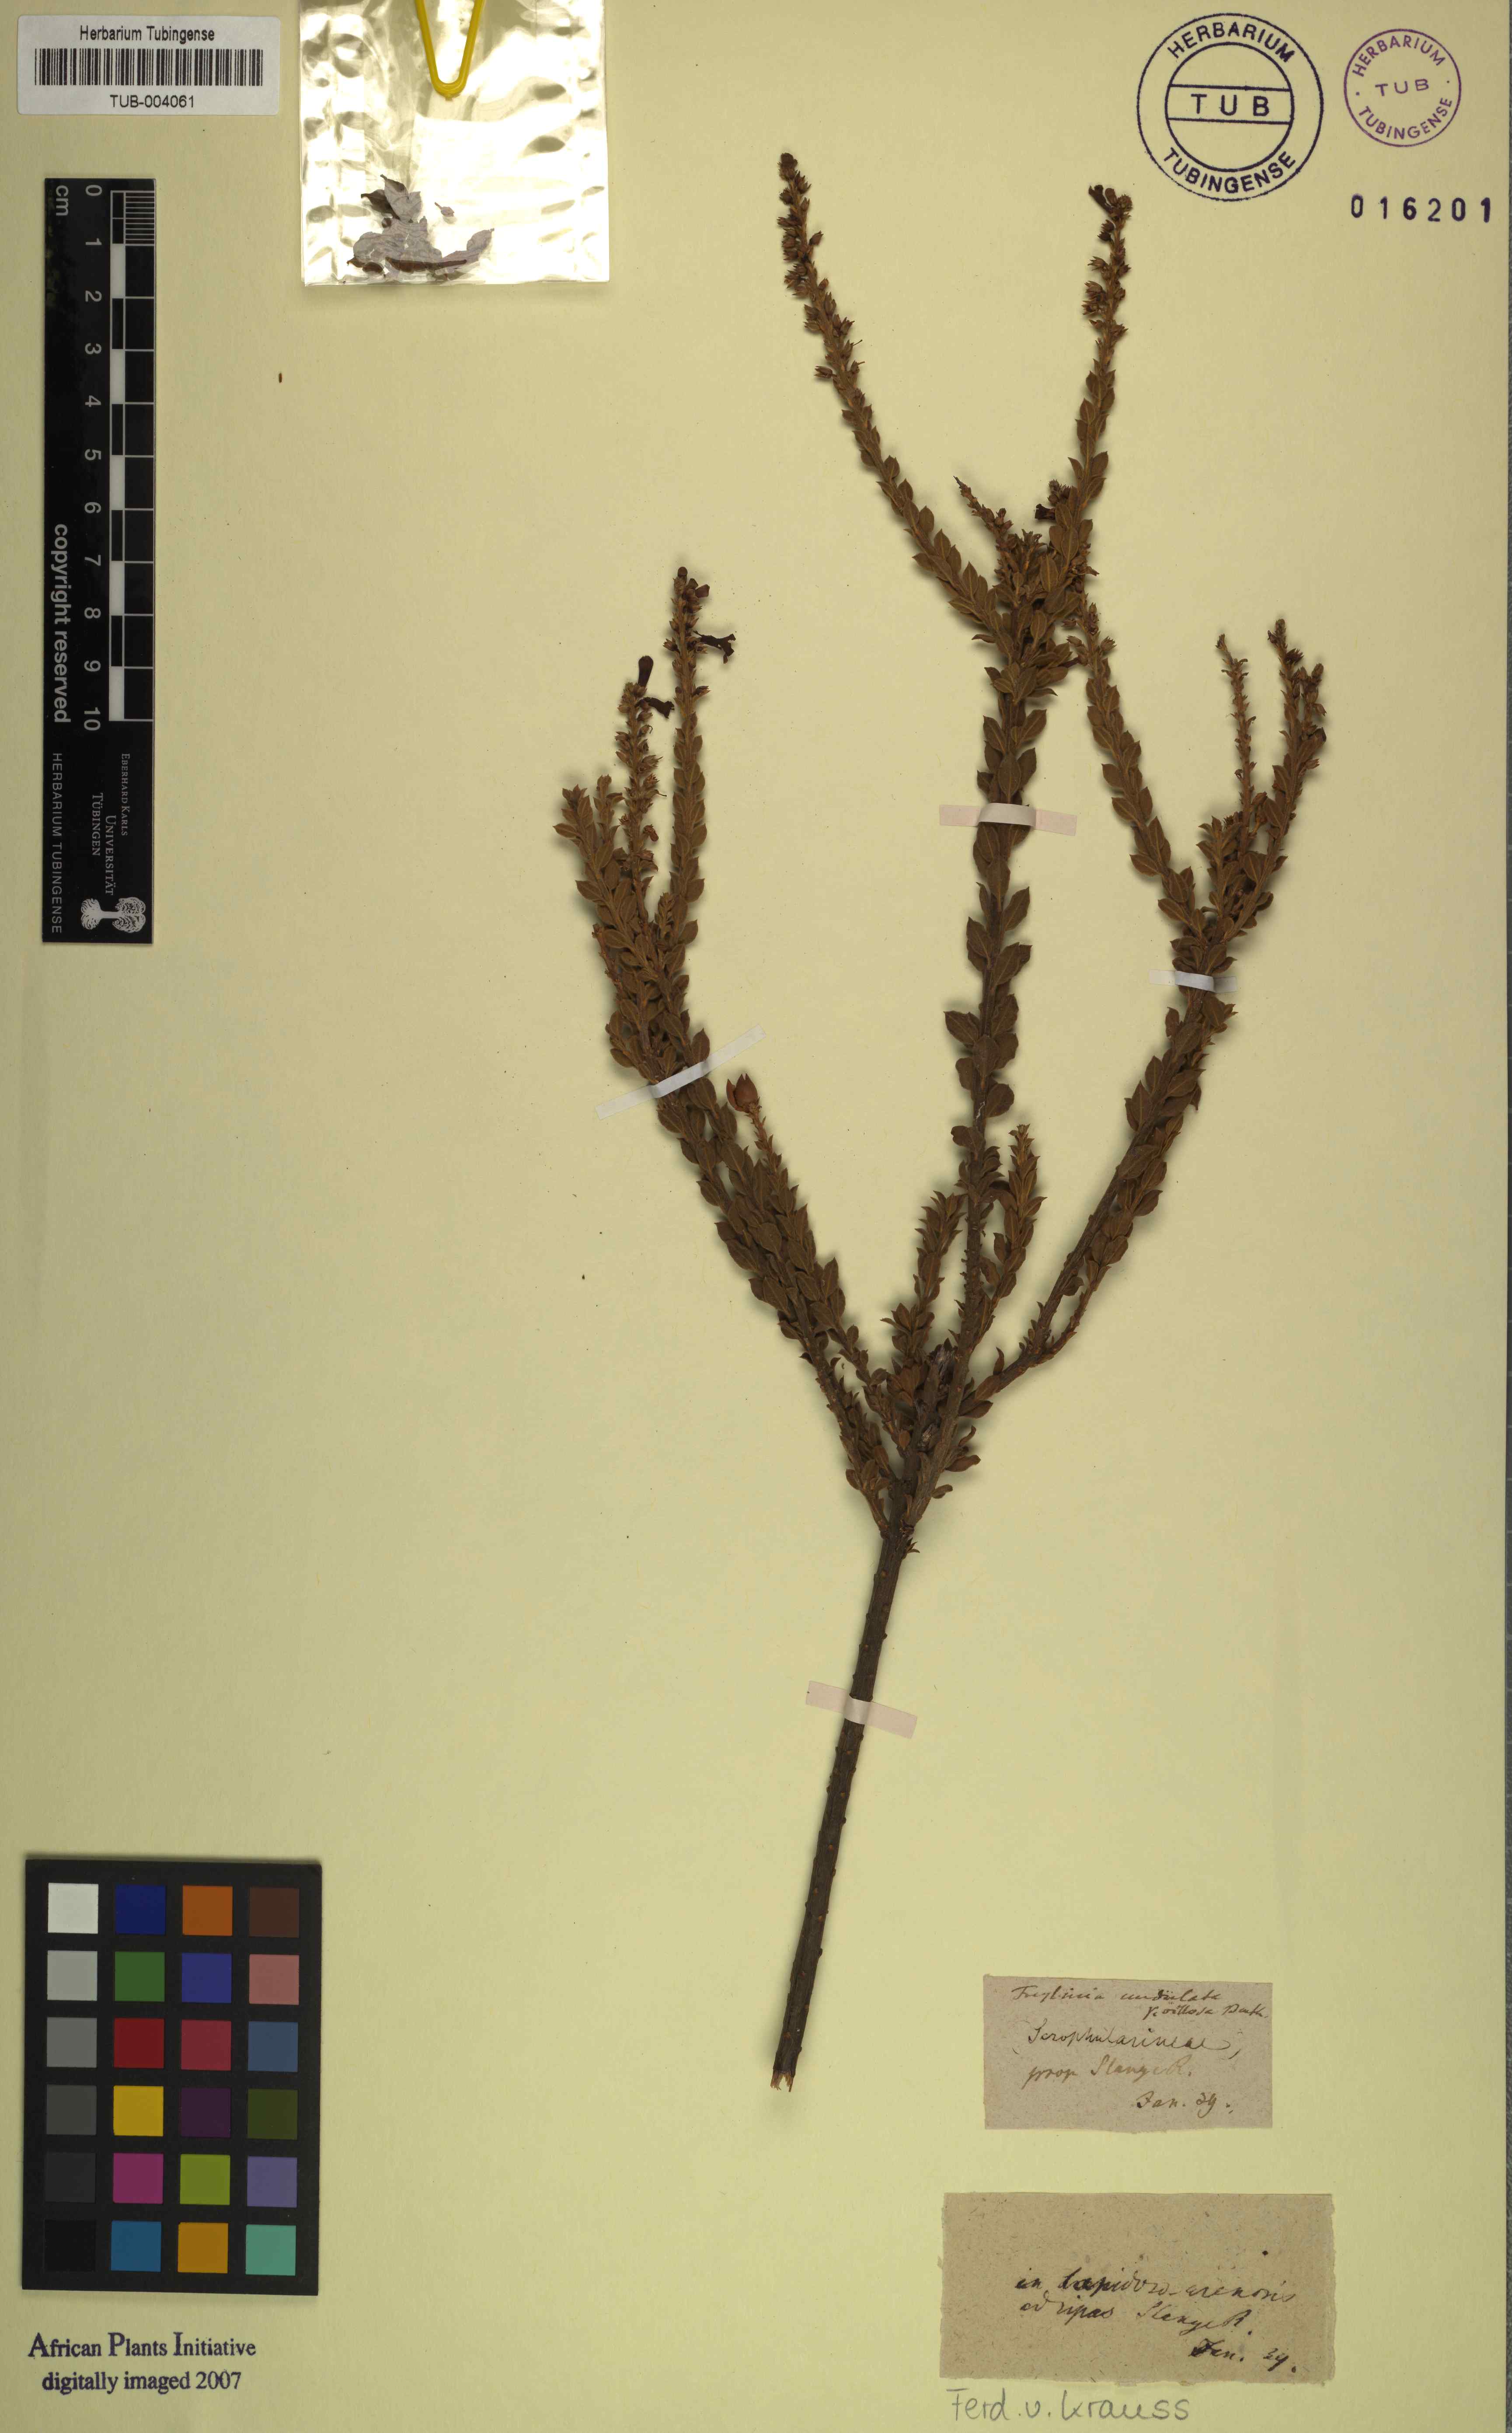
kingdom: Plantae
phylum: Tracheophyta
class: Magnoliopsida
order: Lamiales
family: Scrophulariaceae
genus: Freylinia
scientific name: Freylinia undulata
